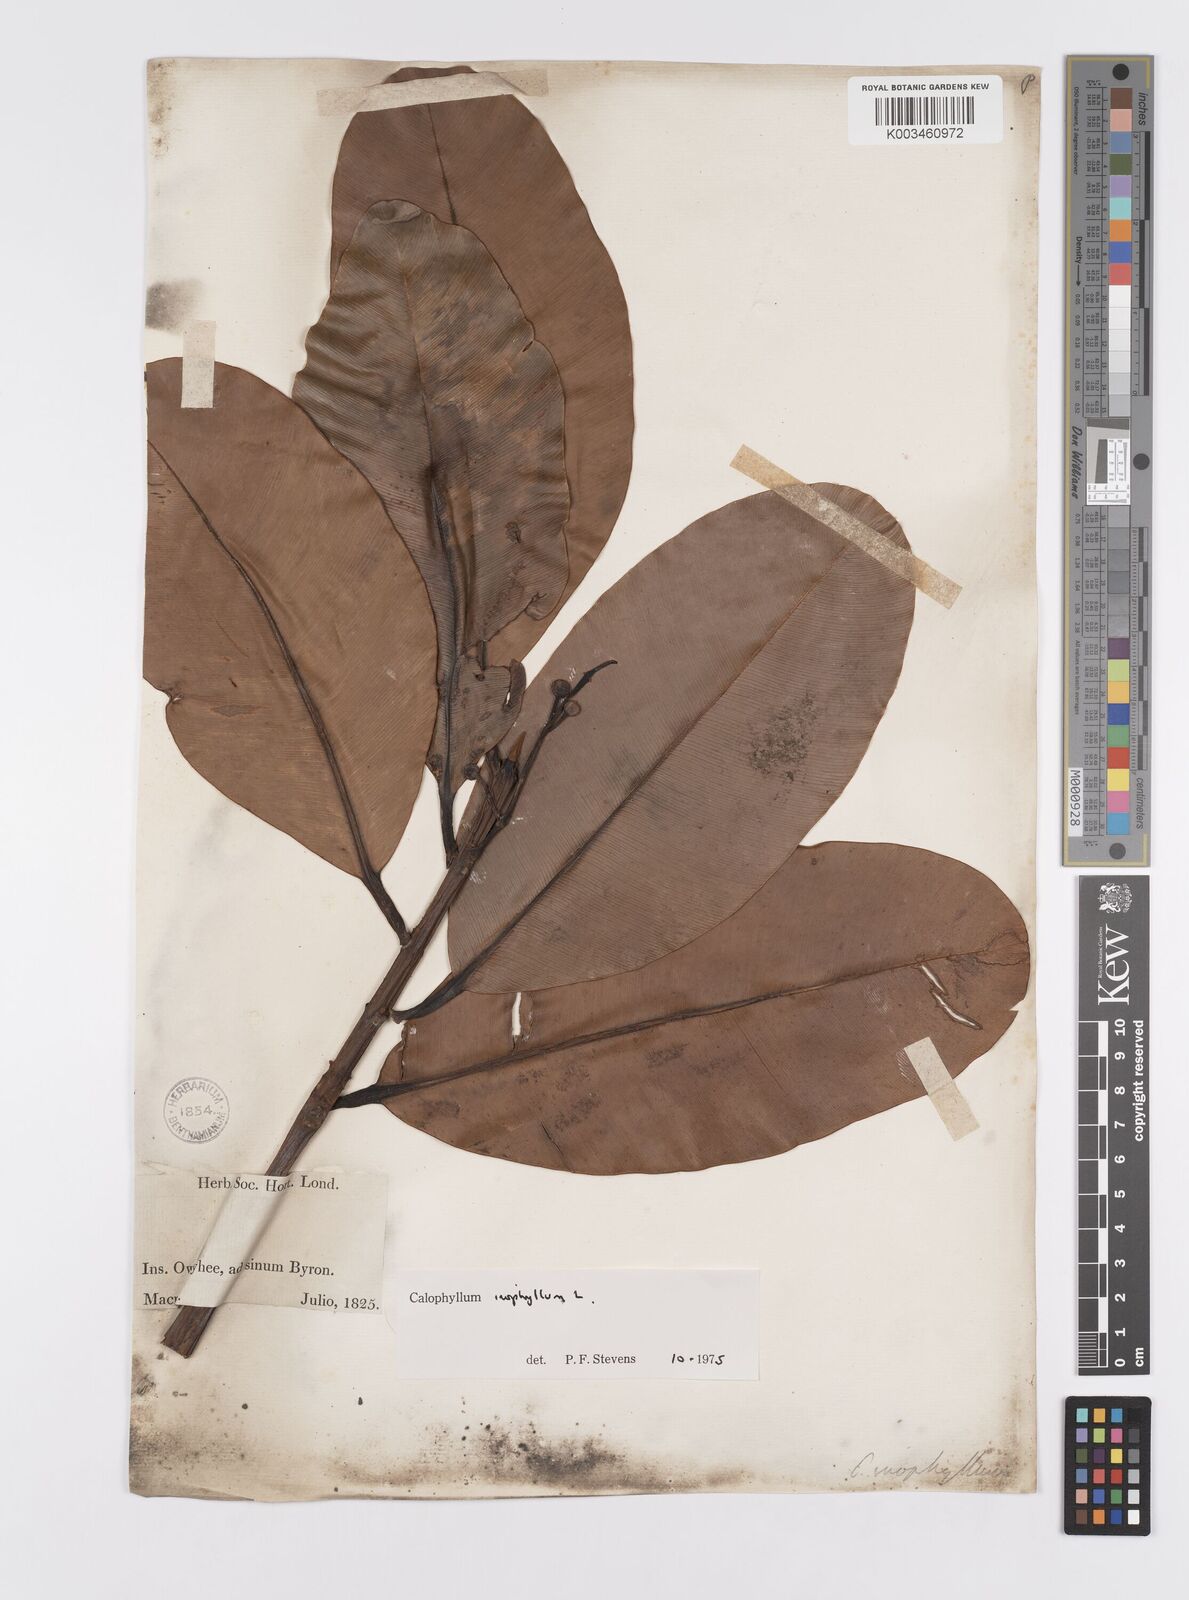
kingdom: Plantae
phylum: Tracheophyta
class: Magnoliopsida
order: Malpighiales
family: Calophyllaceae
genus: Calophyllum
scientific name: Calophyllum inophyllum
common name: Alexandrian laurel
